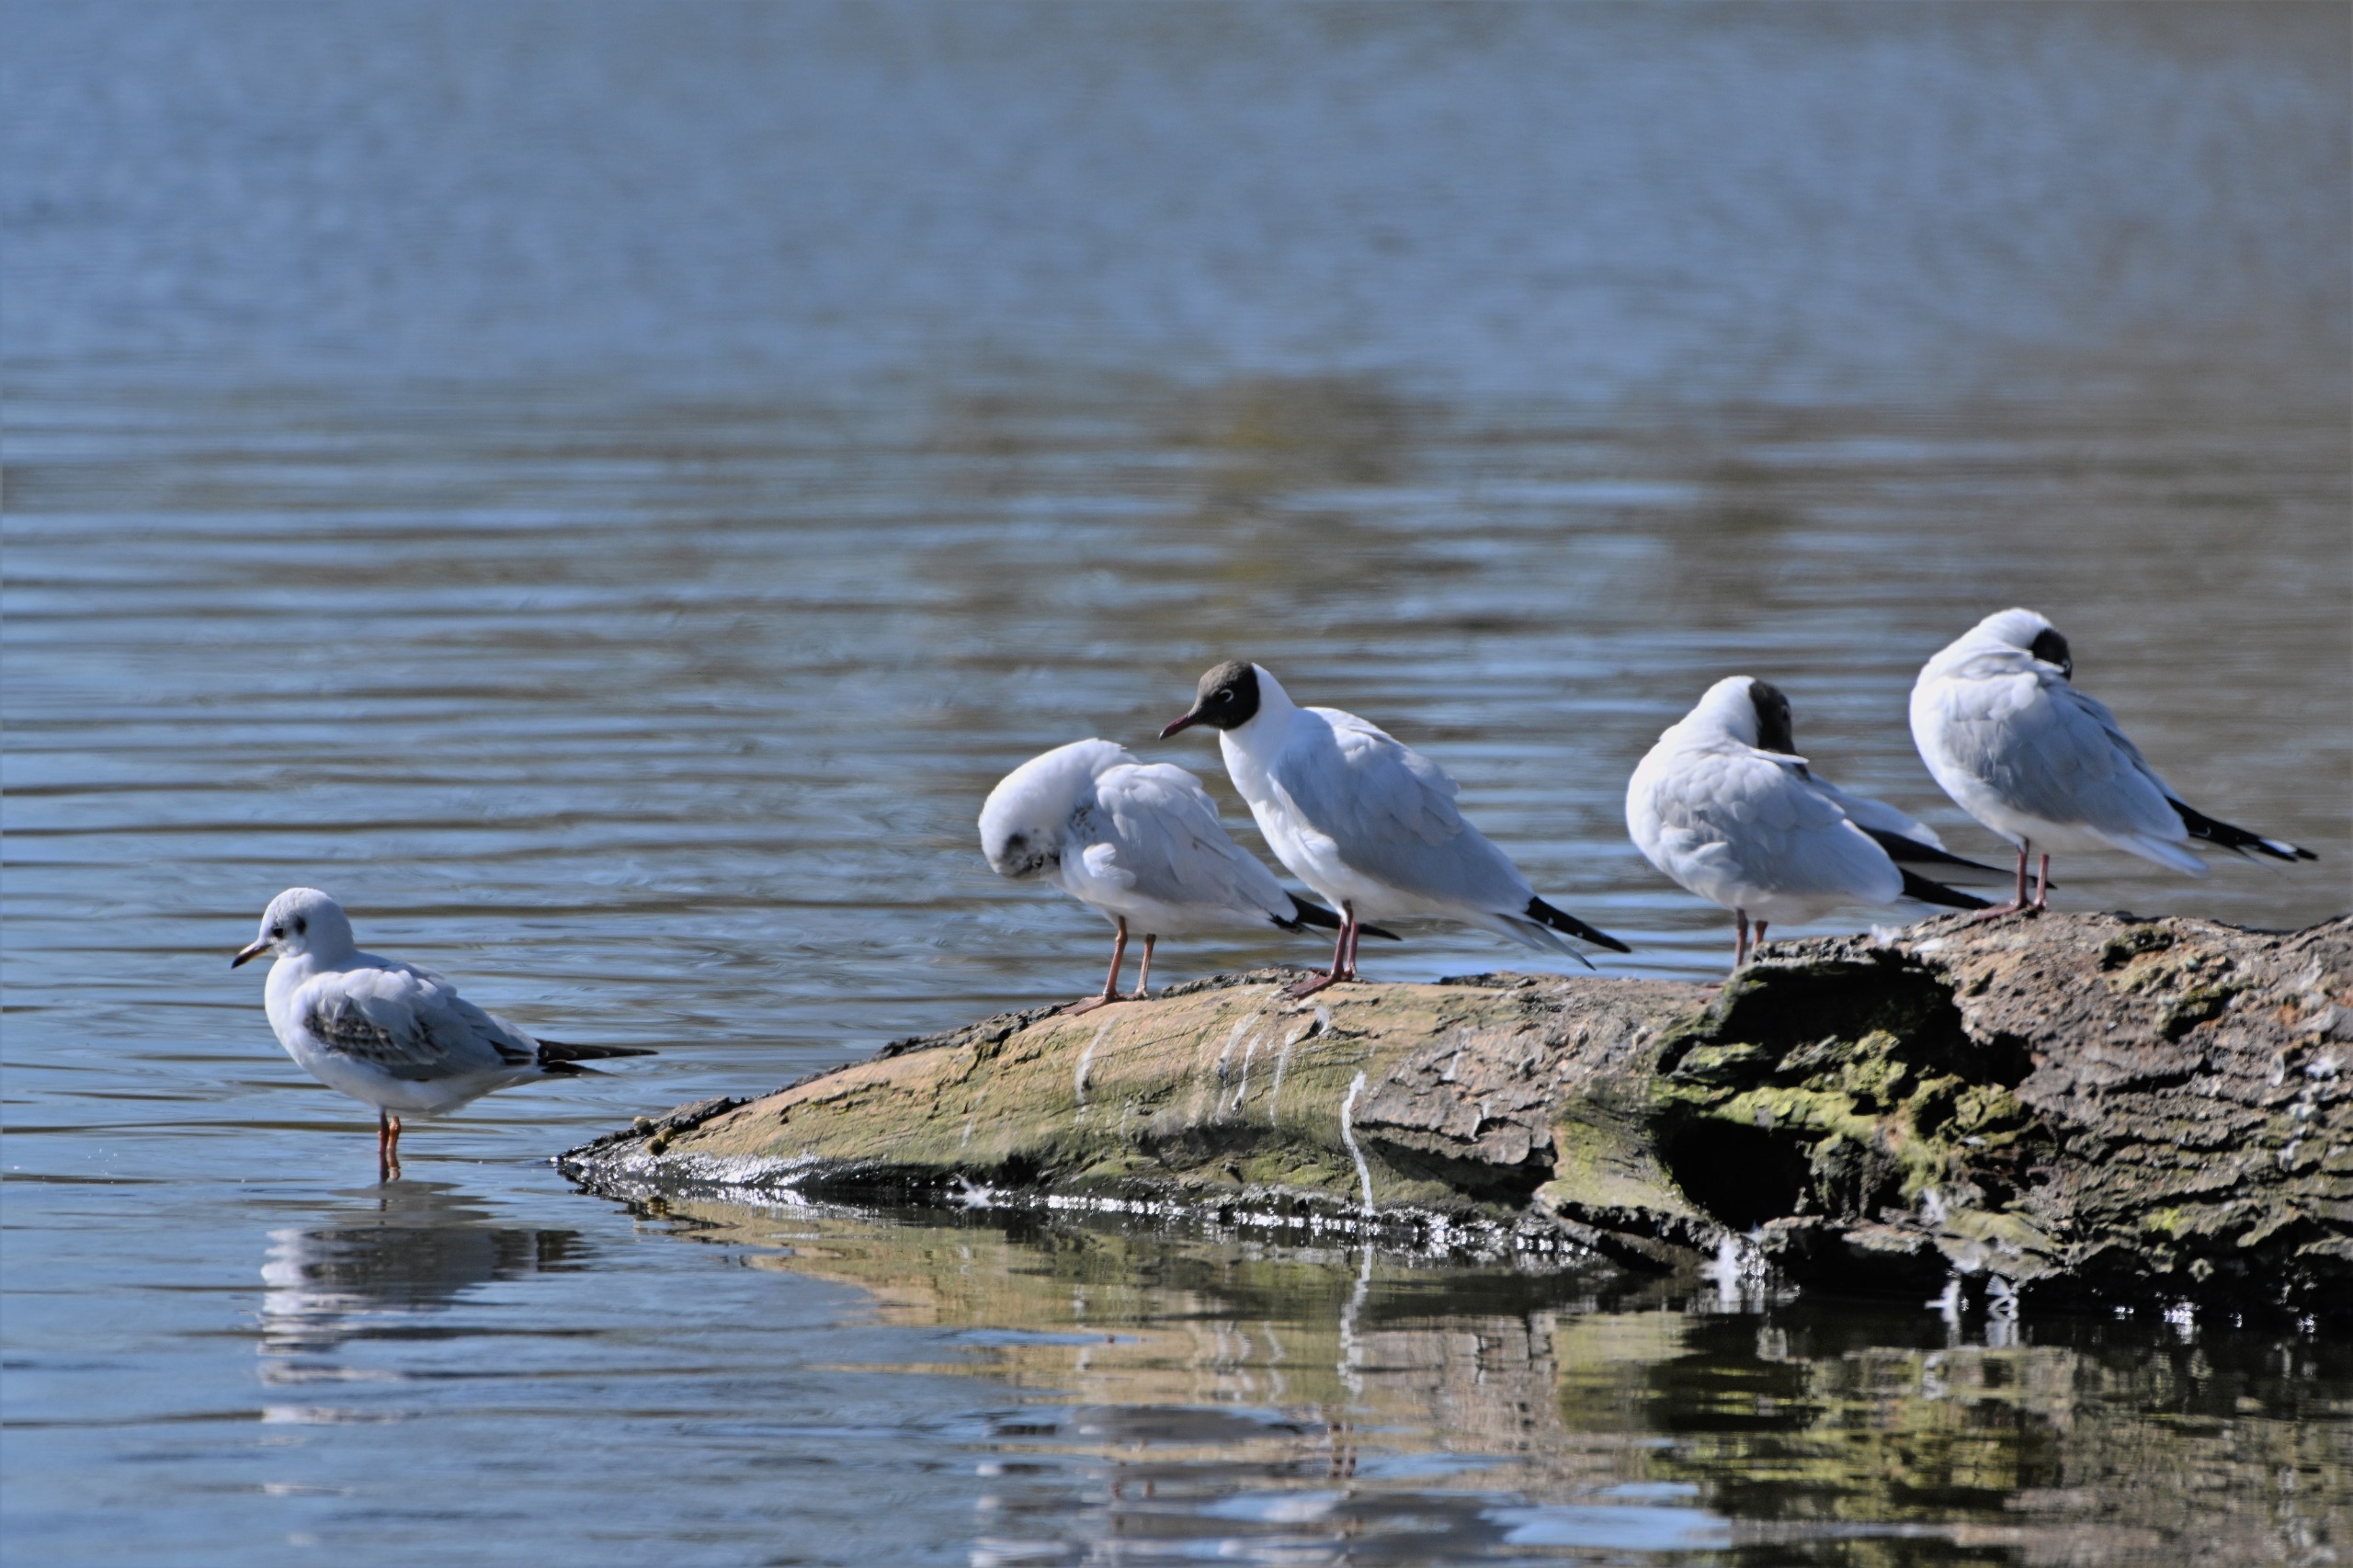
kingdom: Animalia
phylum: Chordata
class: Aves
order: Charadriiformes
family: Laridae
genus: Chroicocephalus
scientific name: Chroicocephalus ridibundus
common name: Hættemåge
